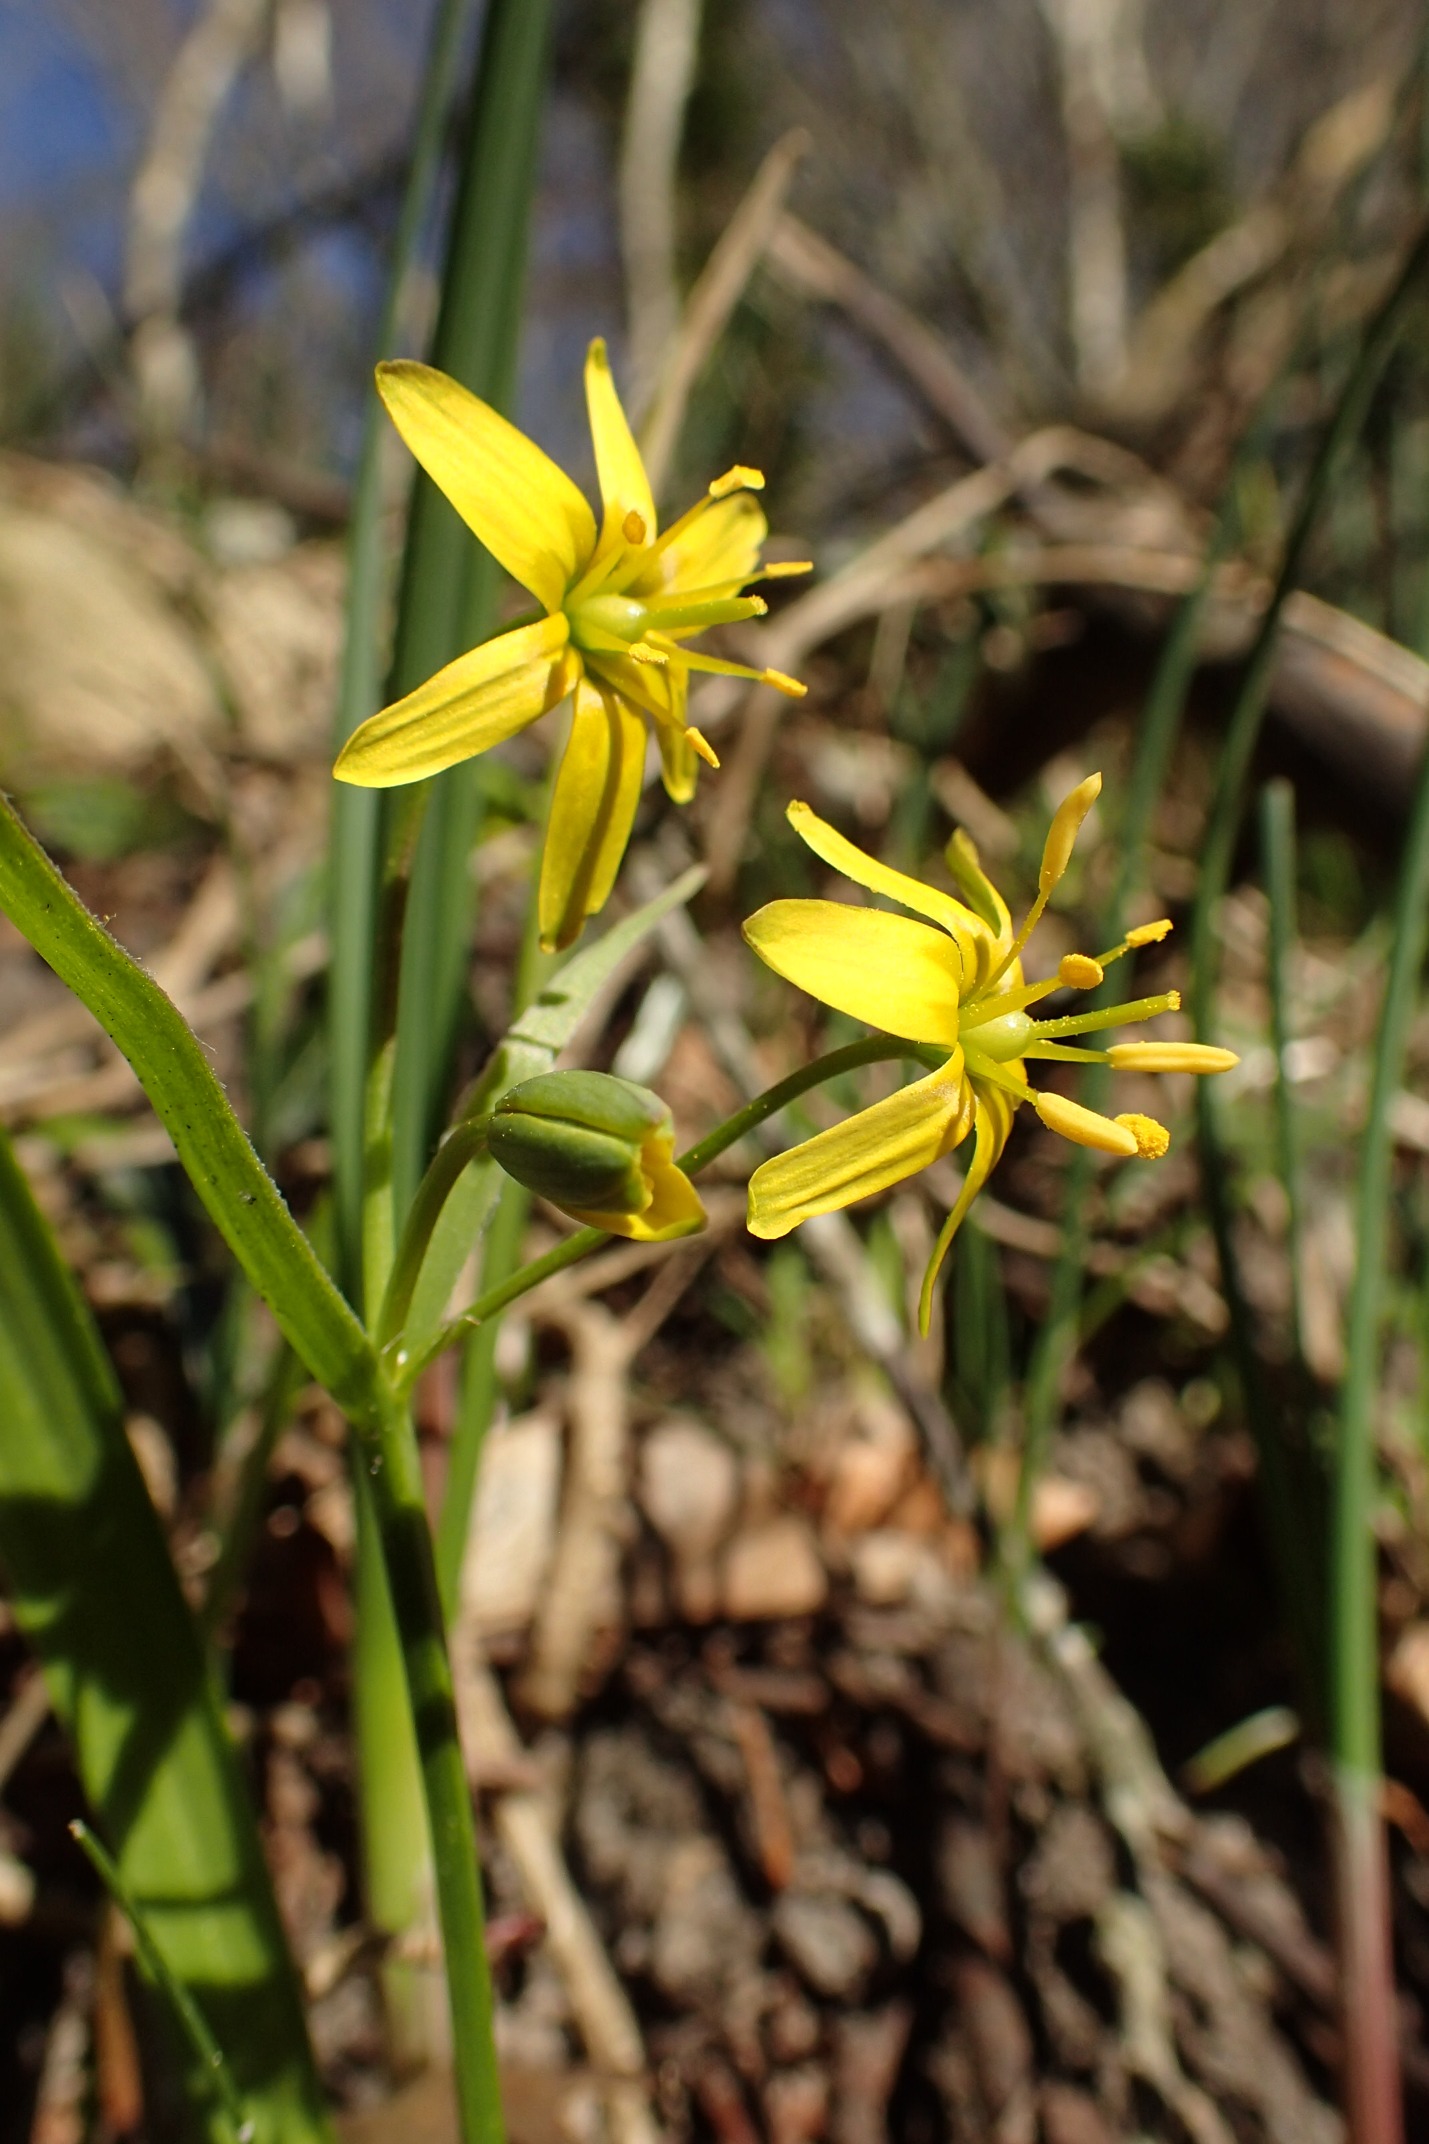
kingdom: Plantae
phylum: Tracheophyta
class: Liliopsida
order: Liliales
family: Liliaceae
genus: Gagea
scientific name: Gagea lutea
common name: Almindelig guldstjerne
